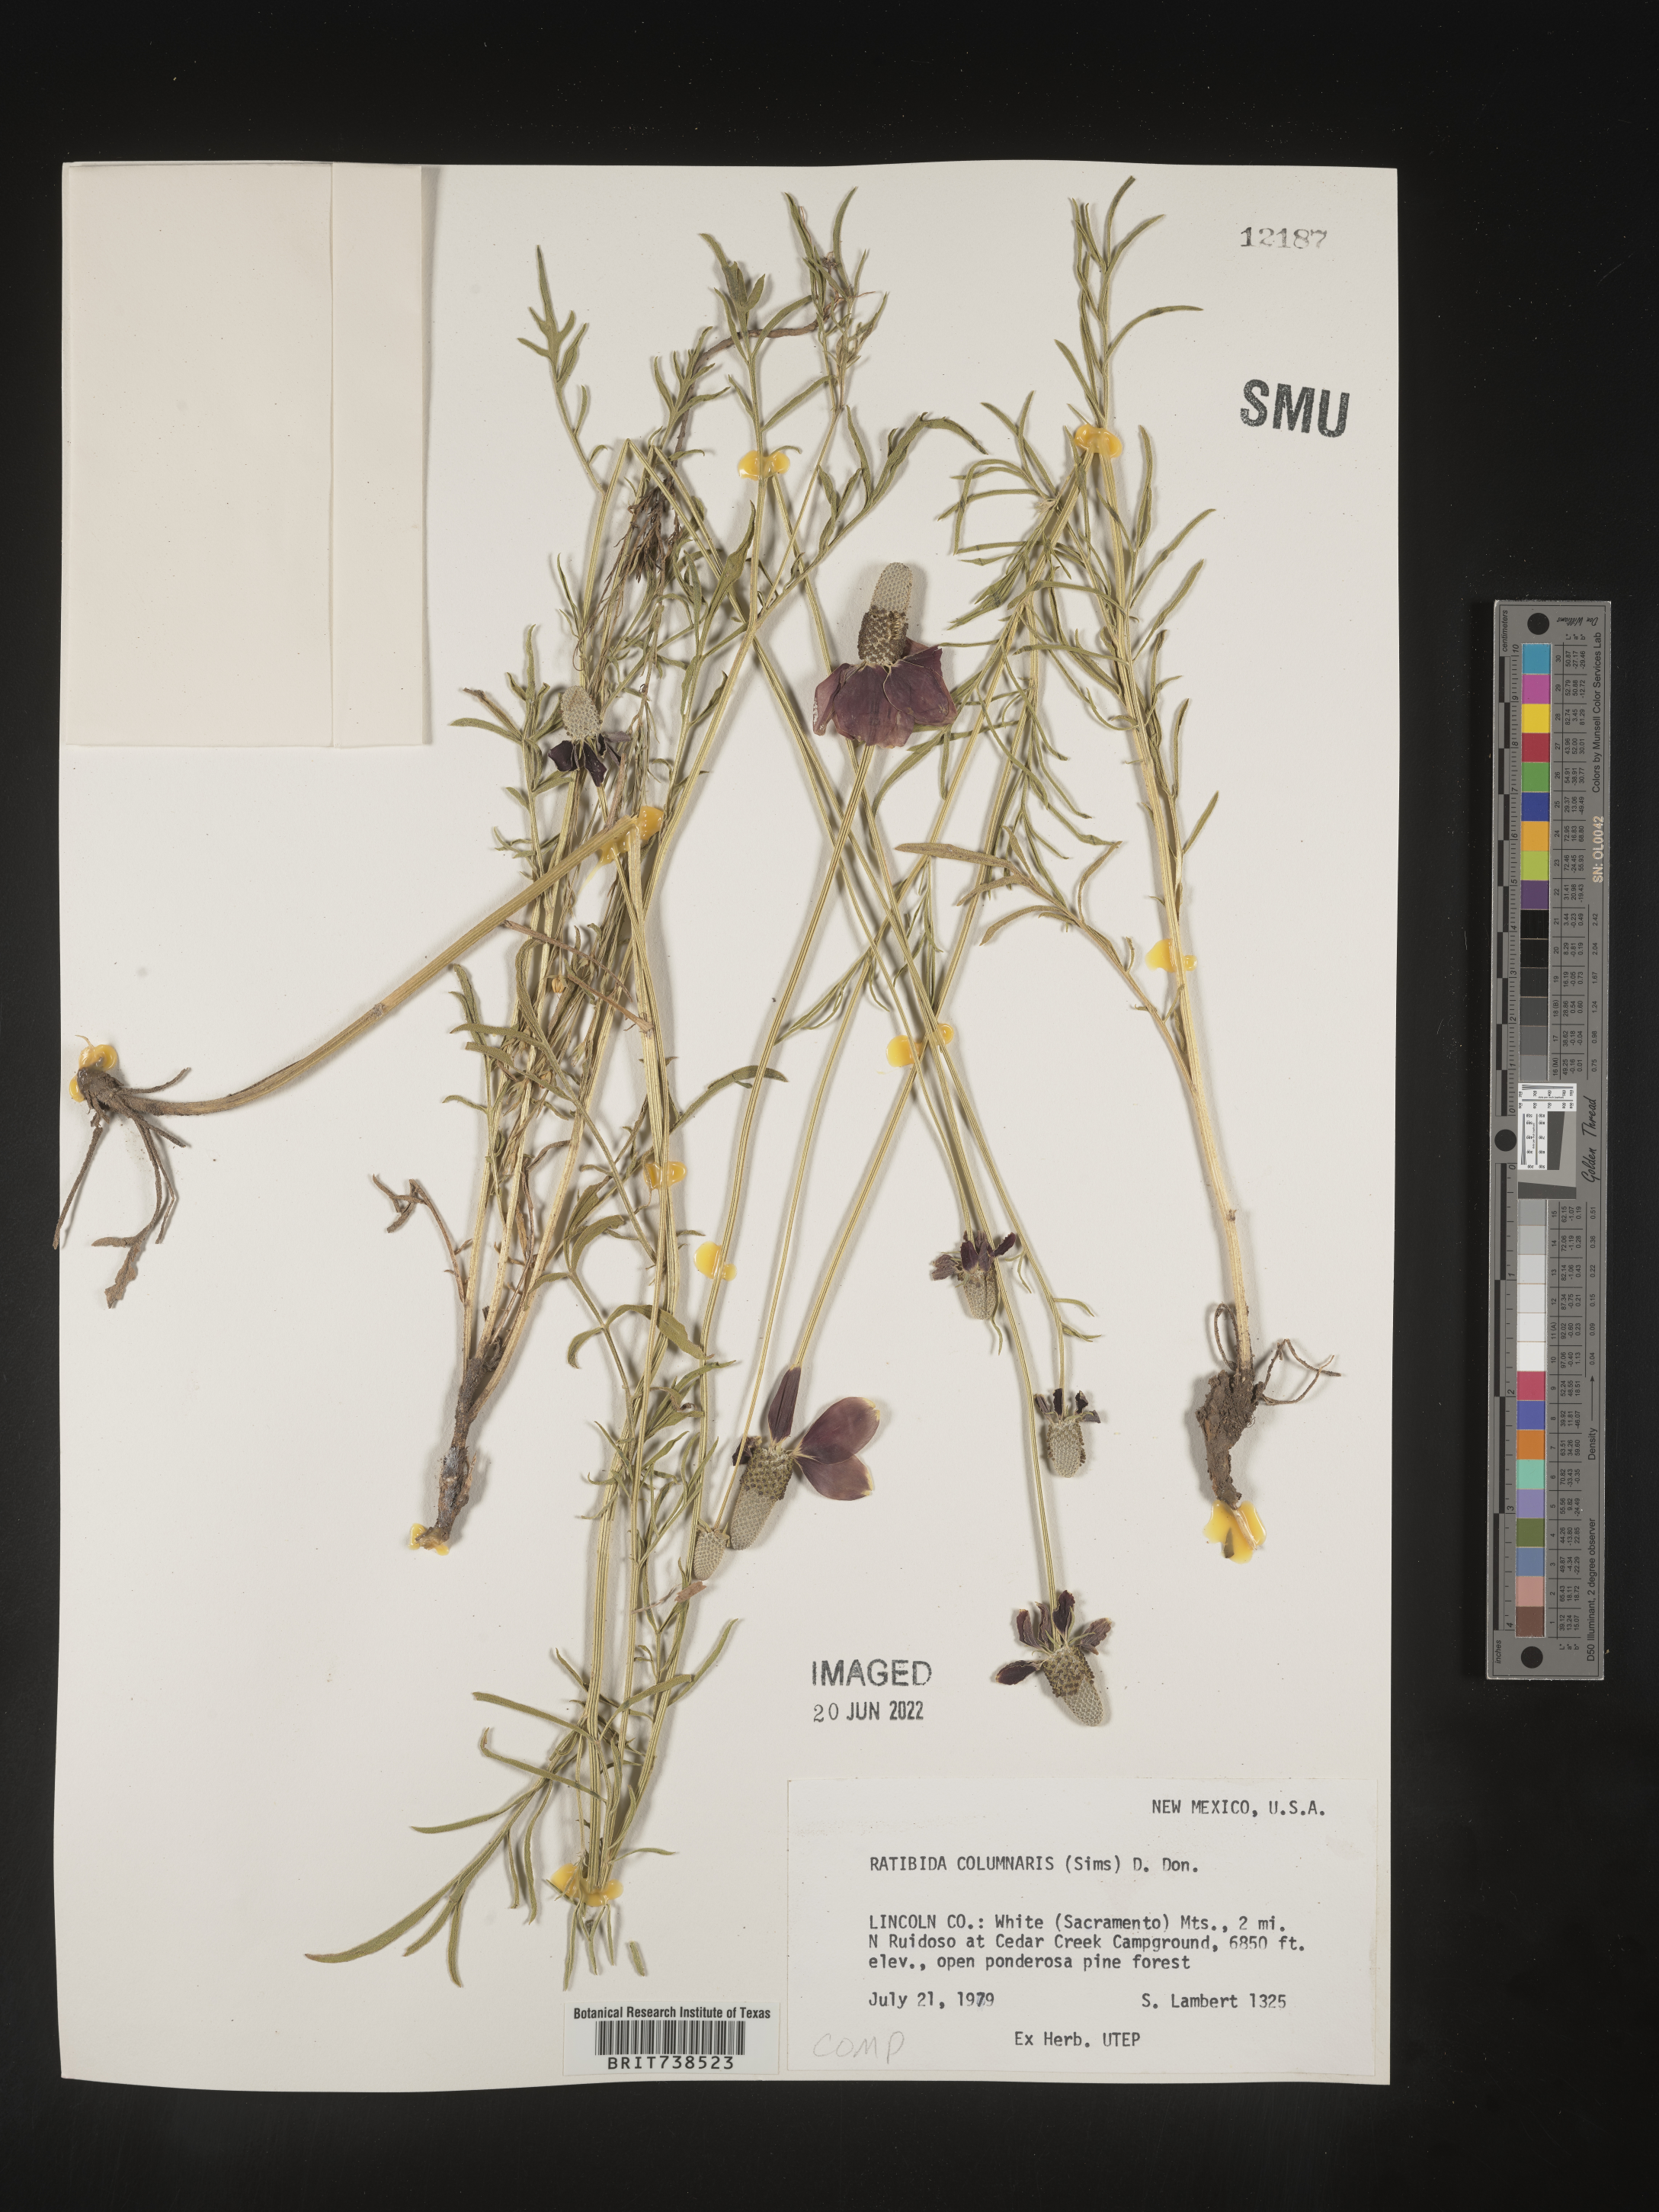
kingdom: Plantae
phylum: Tracheophyta
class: Magnoliopsida
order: Asterales
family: Asteraceae
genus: Ratibida
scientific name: Ratibida columnifera
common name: Prairie coneflower
